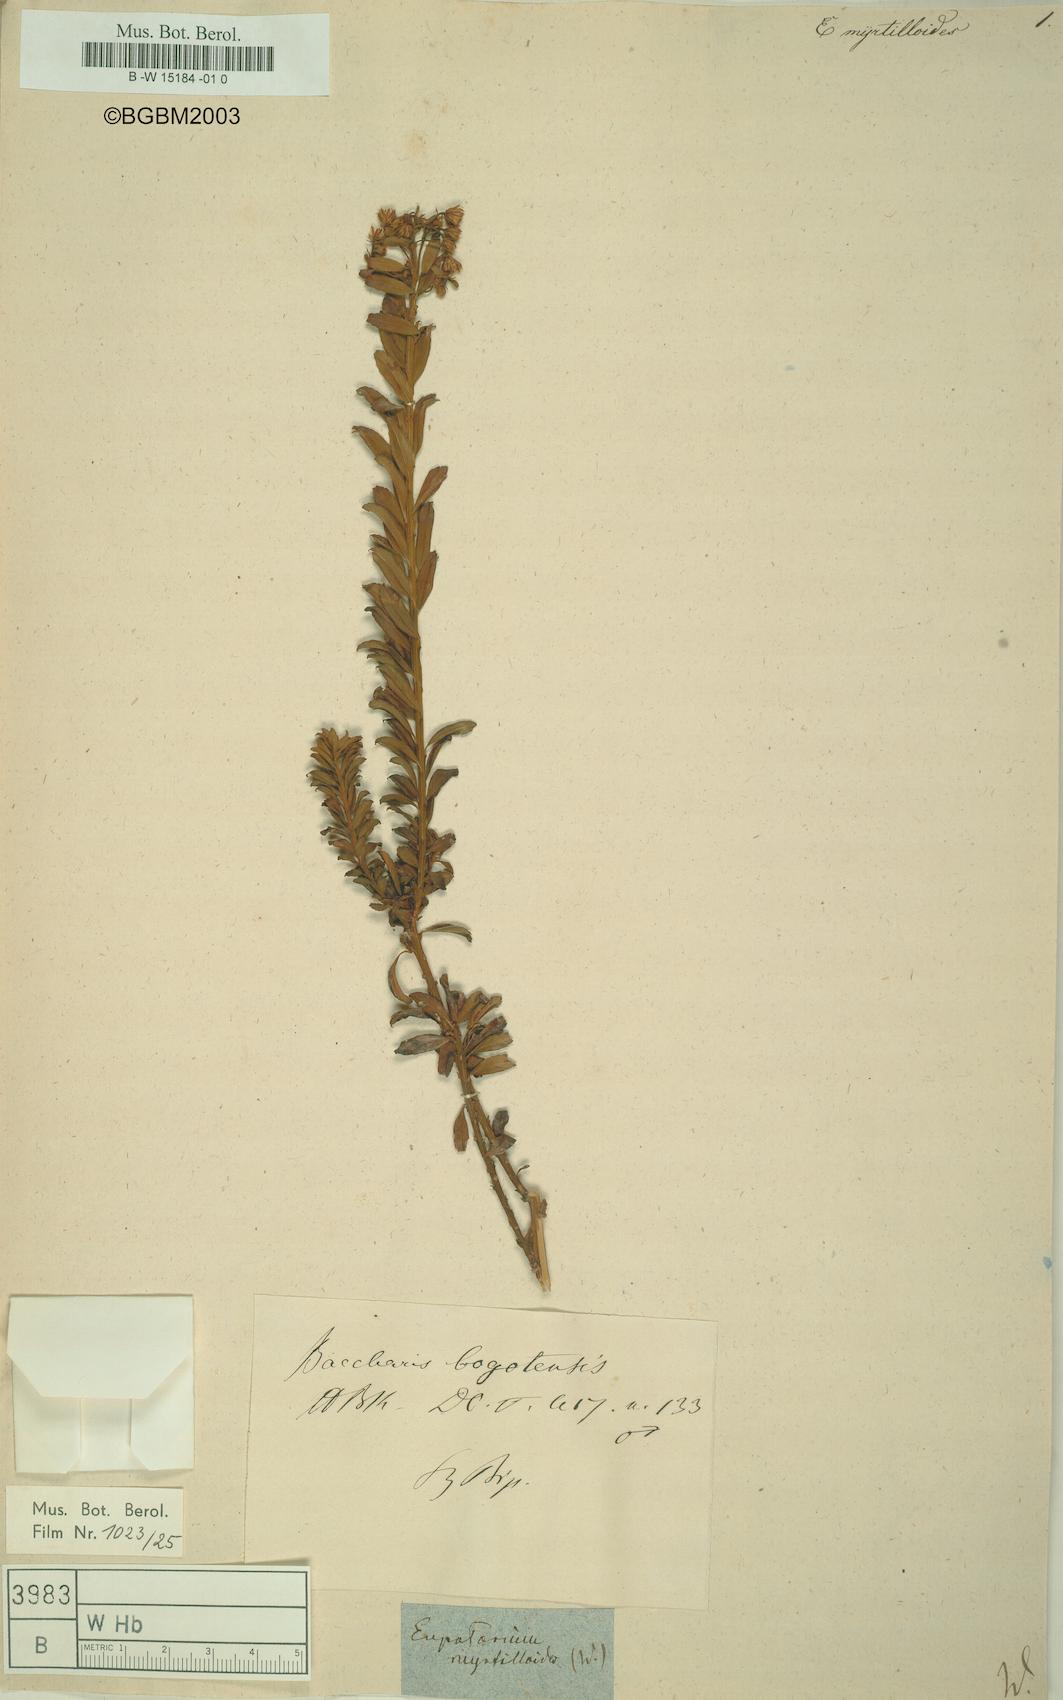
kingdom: Plantae
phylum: Tracheophyta
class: Magnoliopsida
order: Asterales
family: Asteraceae
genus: Koanophyllon
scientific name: Koanophyllon myrtilloides
